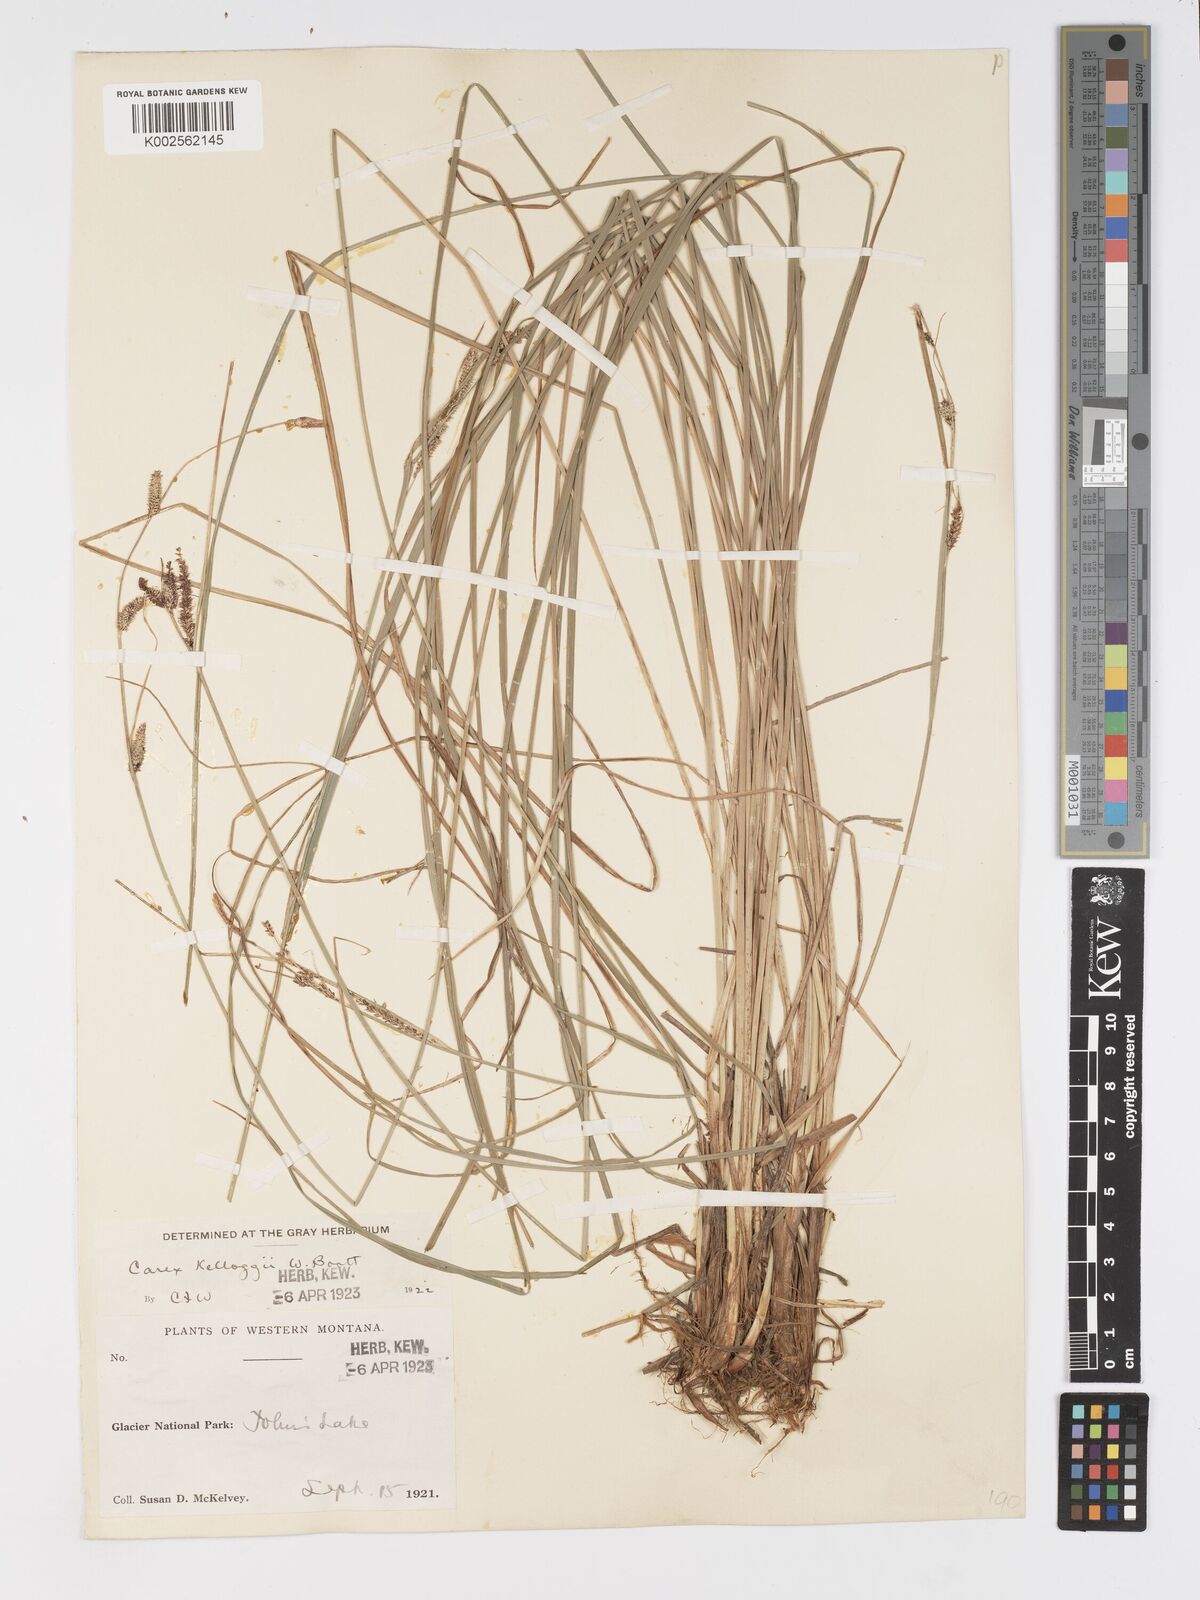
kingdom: Plantae
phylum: Tracheophyta
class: Liliopsida
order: Poales
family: Cyperaceae
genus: Carex
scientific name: Carex kelloggii
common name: Kellogg's sedge
